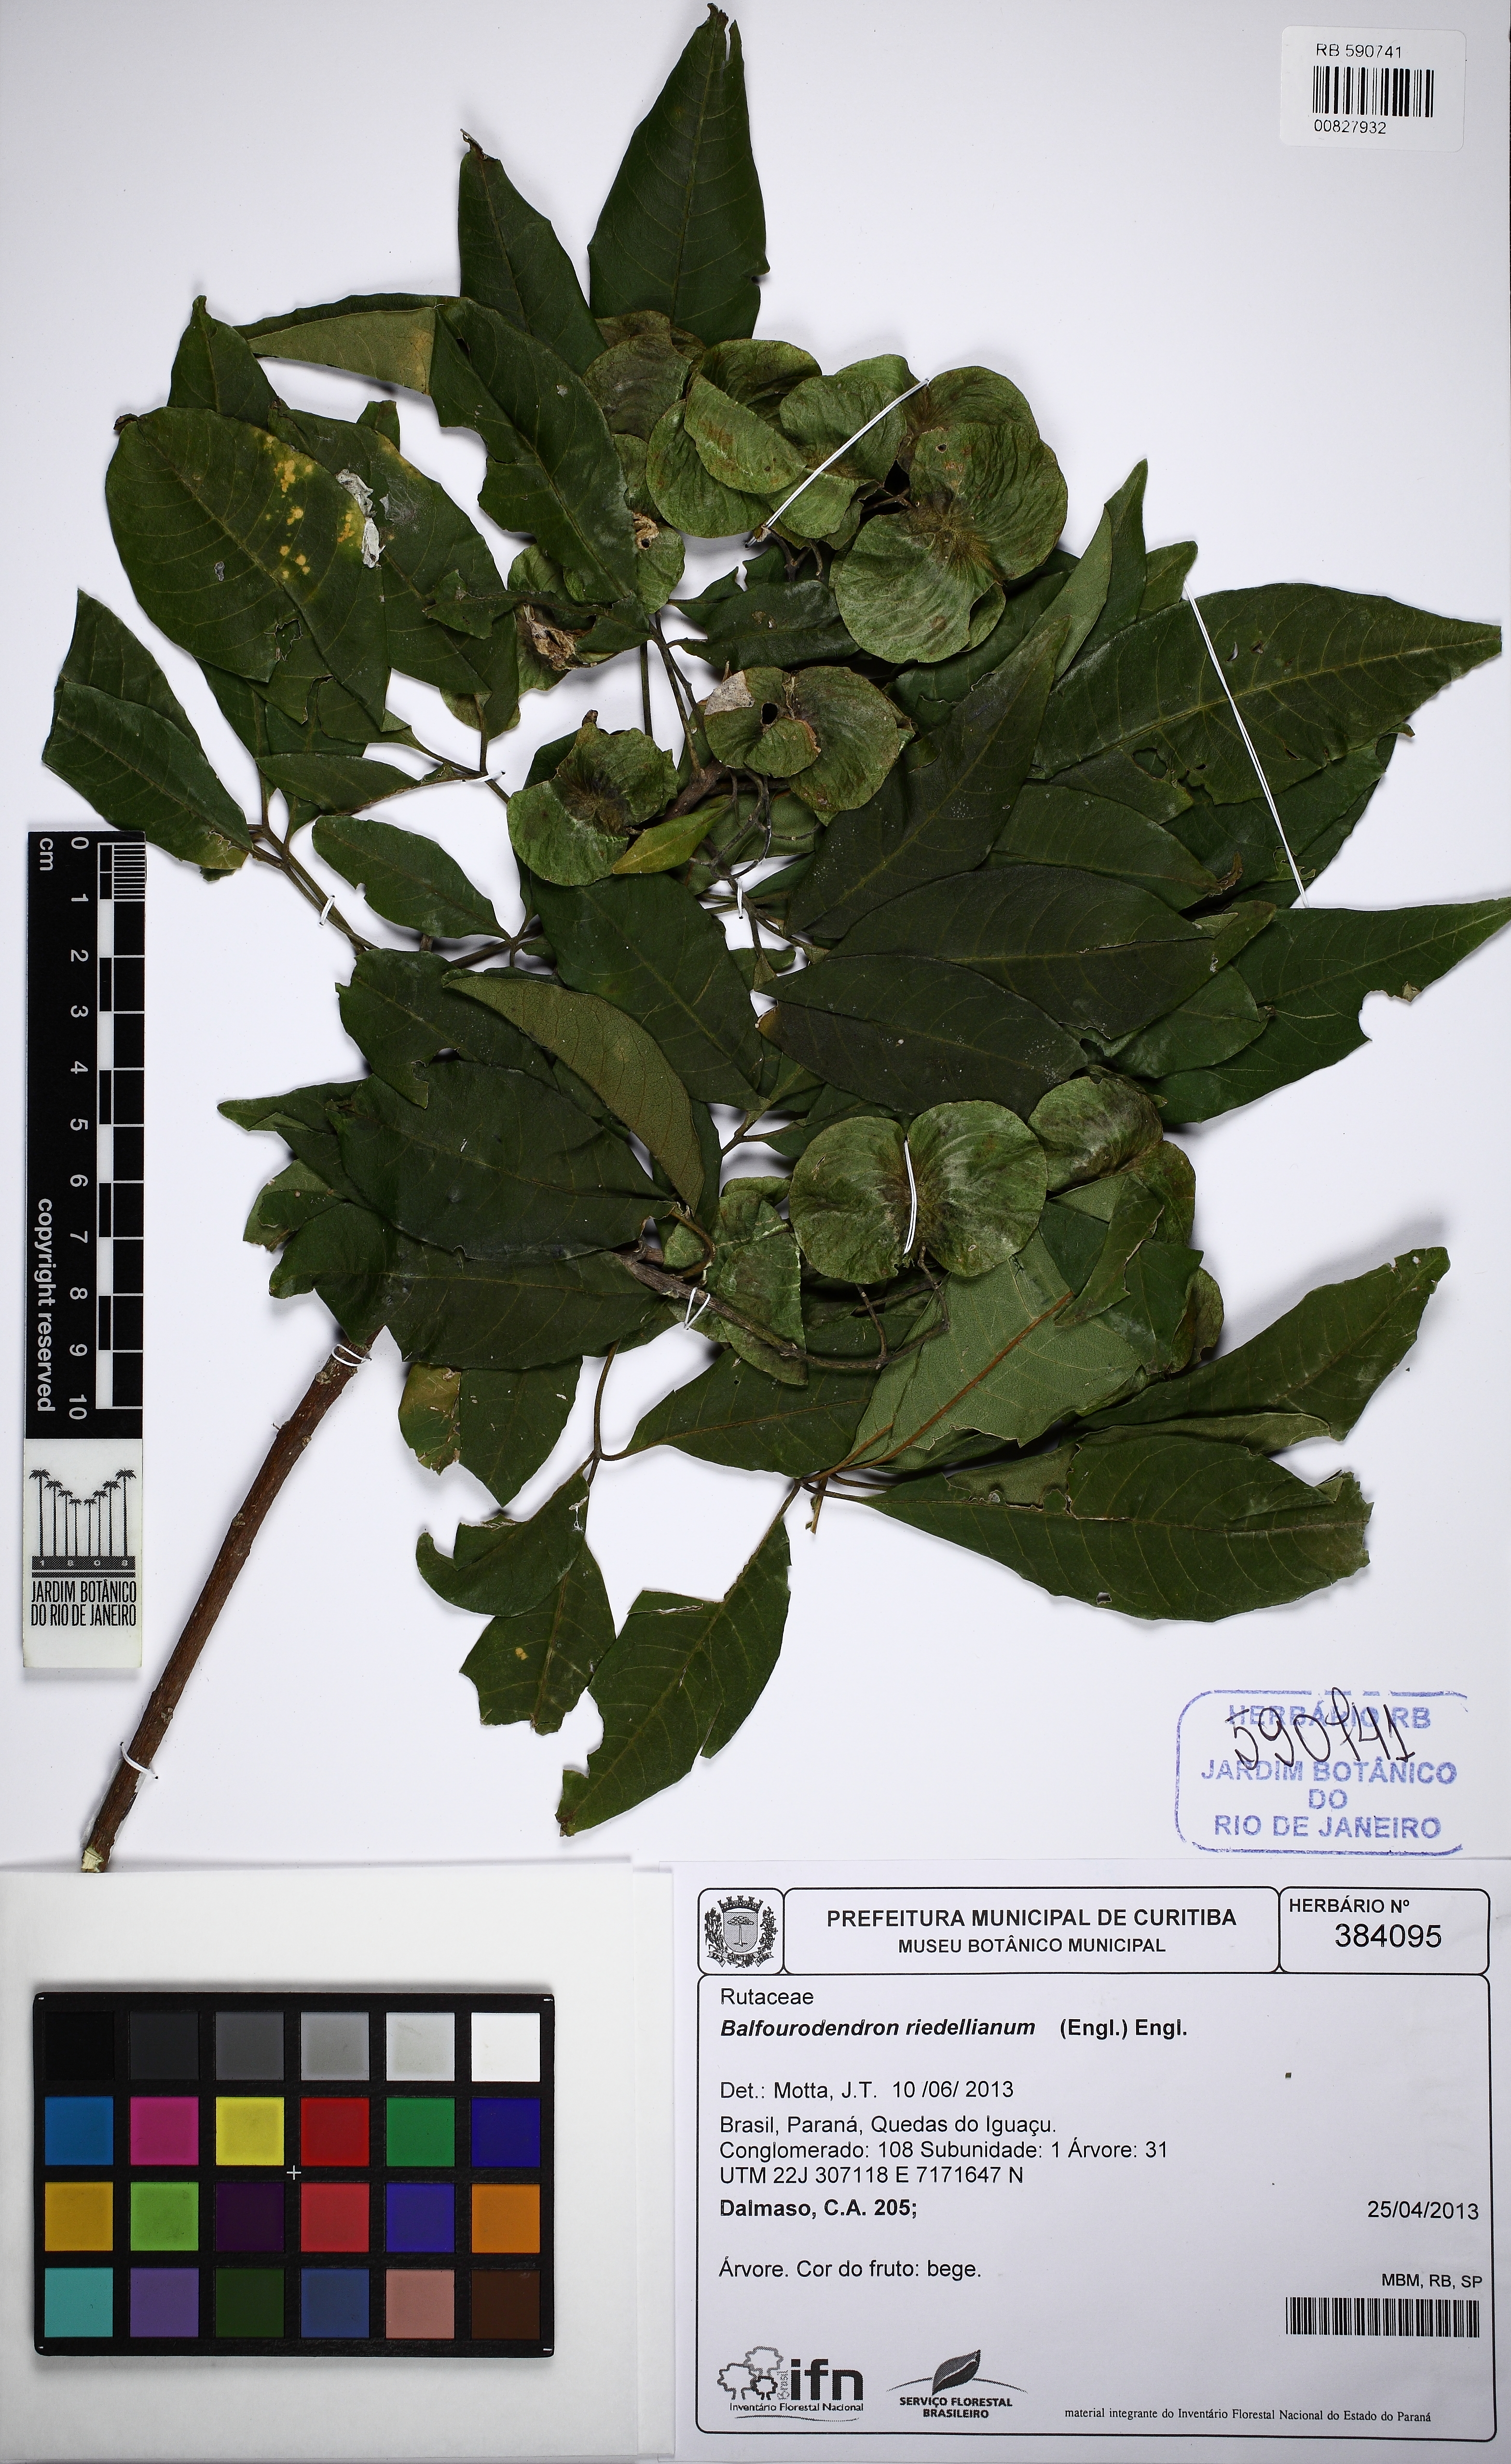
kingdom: Plantae
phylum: Tracheophyta
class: Magnoliopsida
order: Sapindales
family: Rutaceae
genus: Balfourodendron
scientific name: Balfourodendron riedelianum
